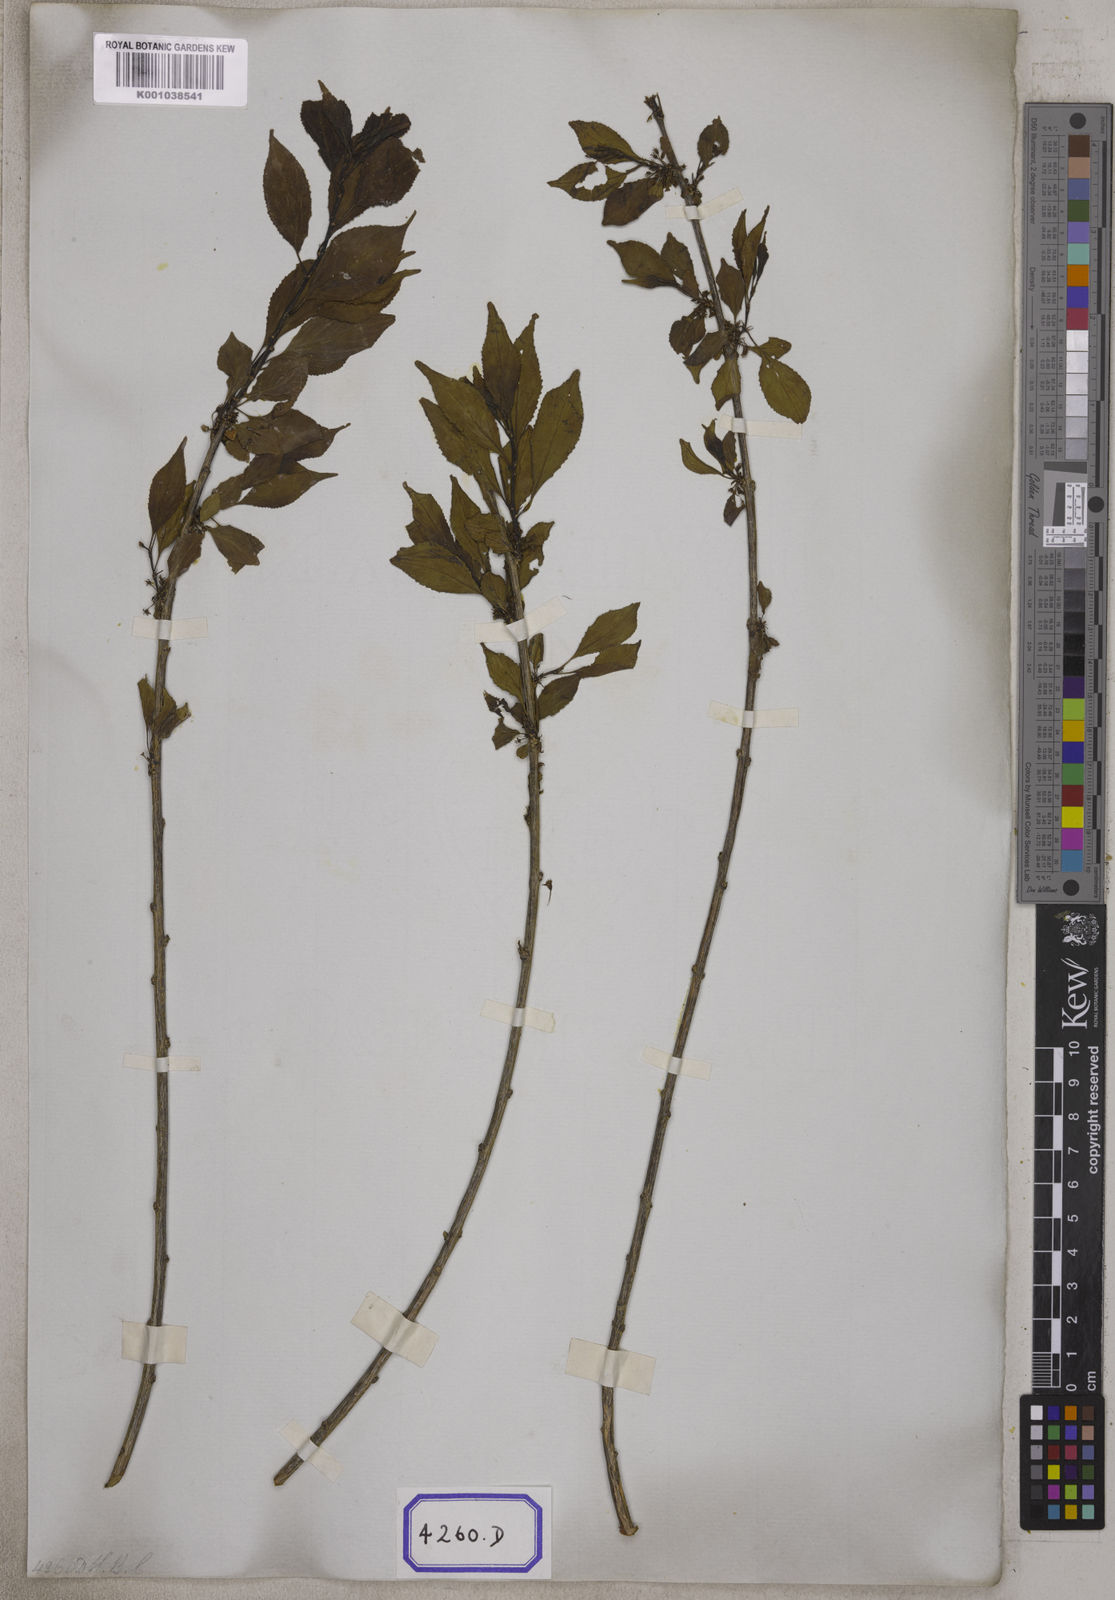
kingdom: Plantae
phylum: Tracheophyta
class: Magnoliopsida
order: Rosales
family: Rhamnaceae
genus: Rhamnus
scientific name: Rhamnus virgata
